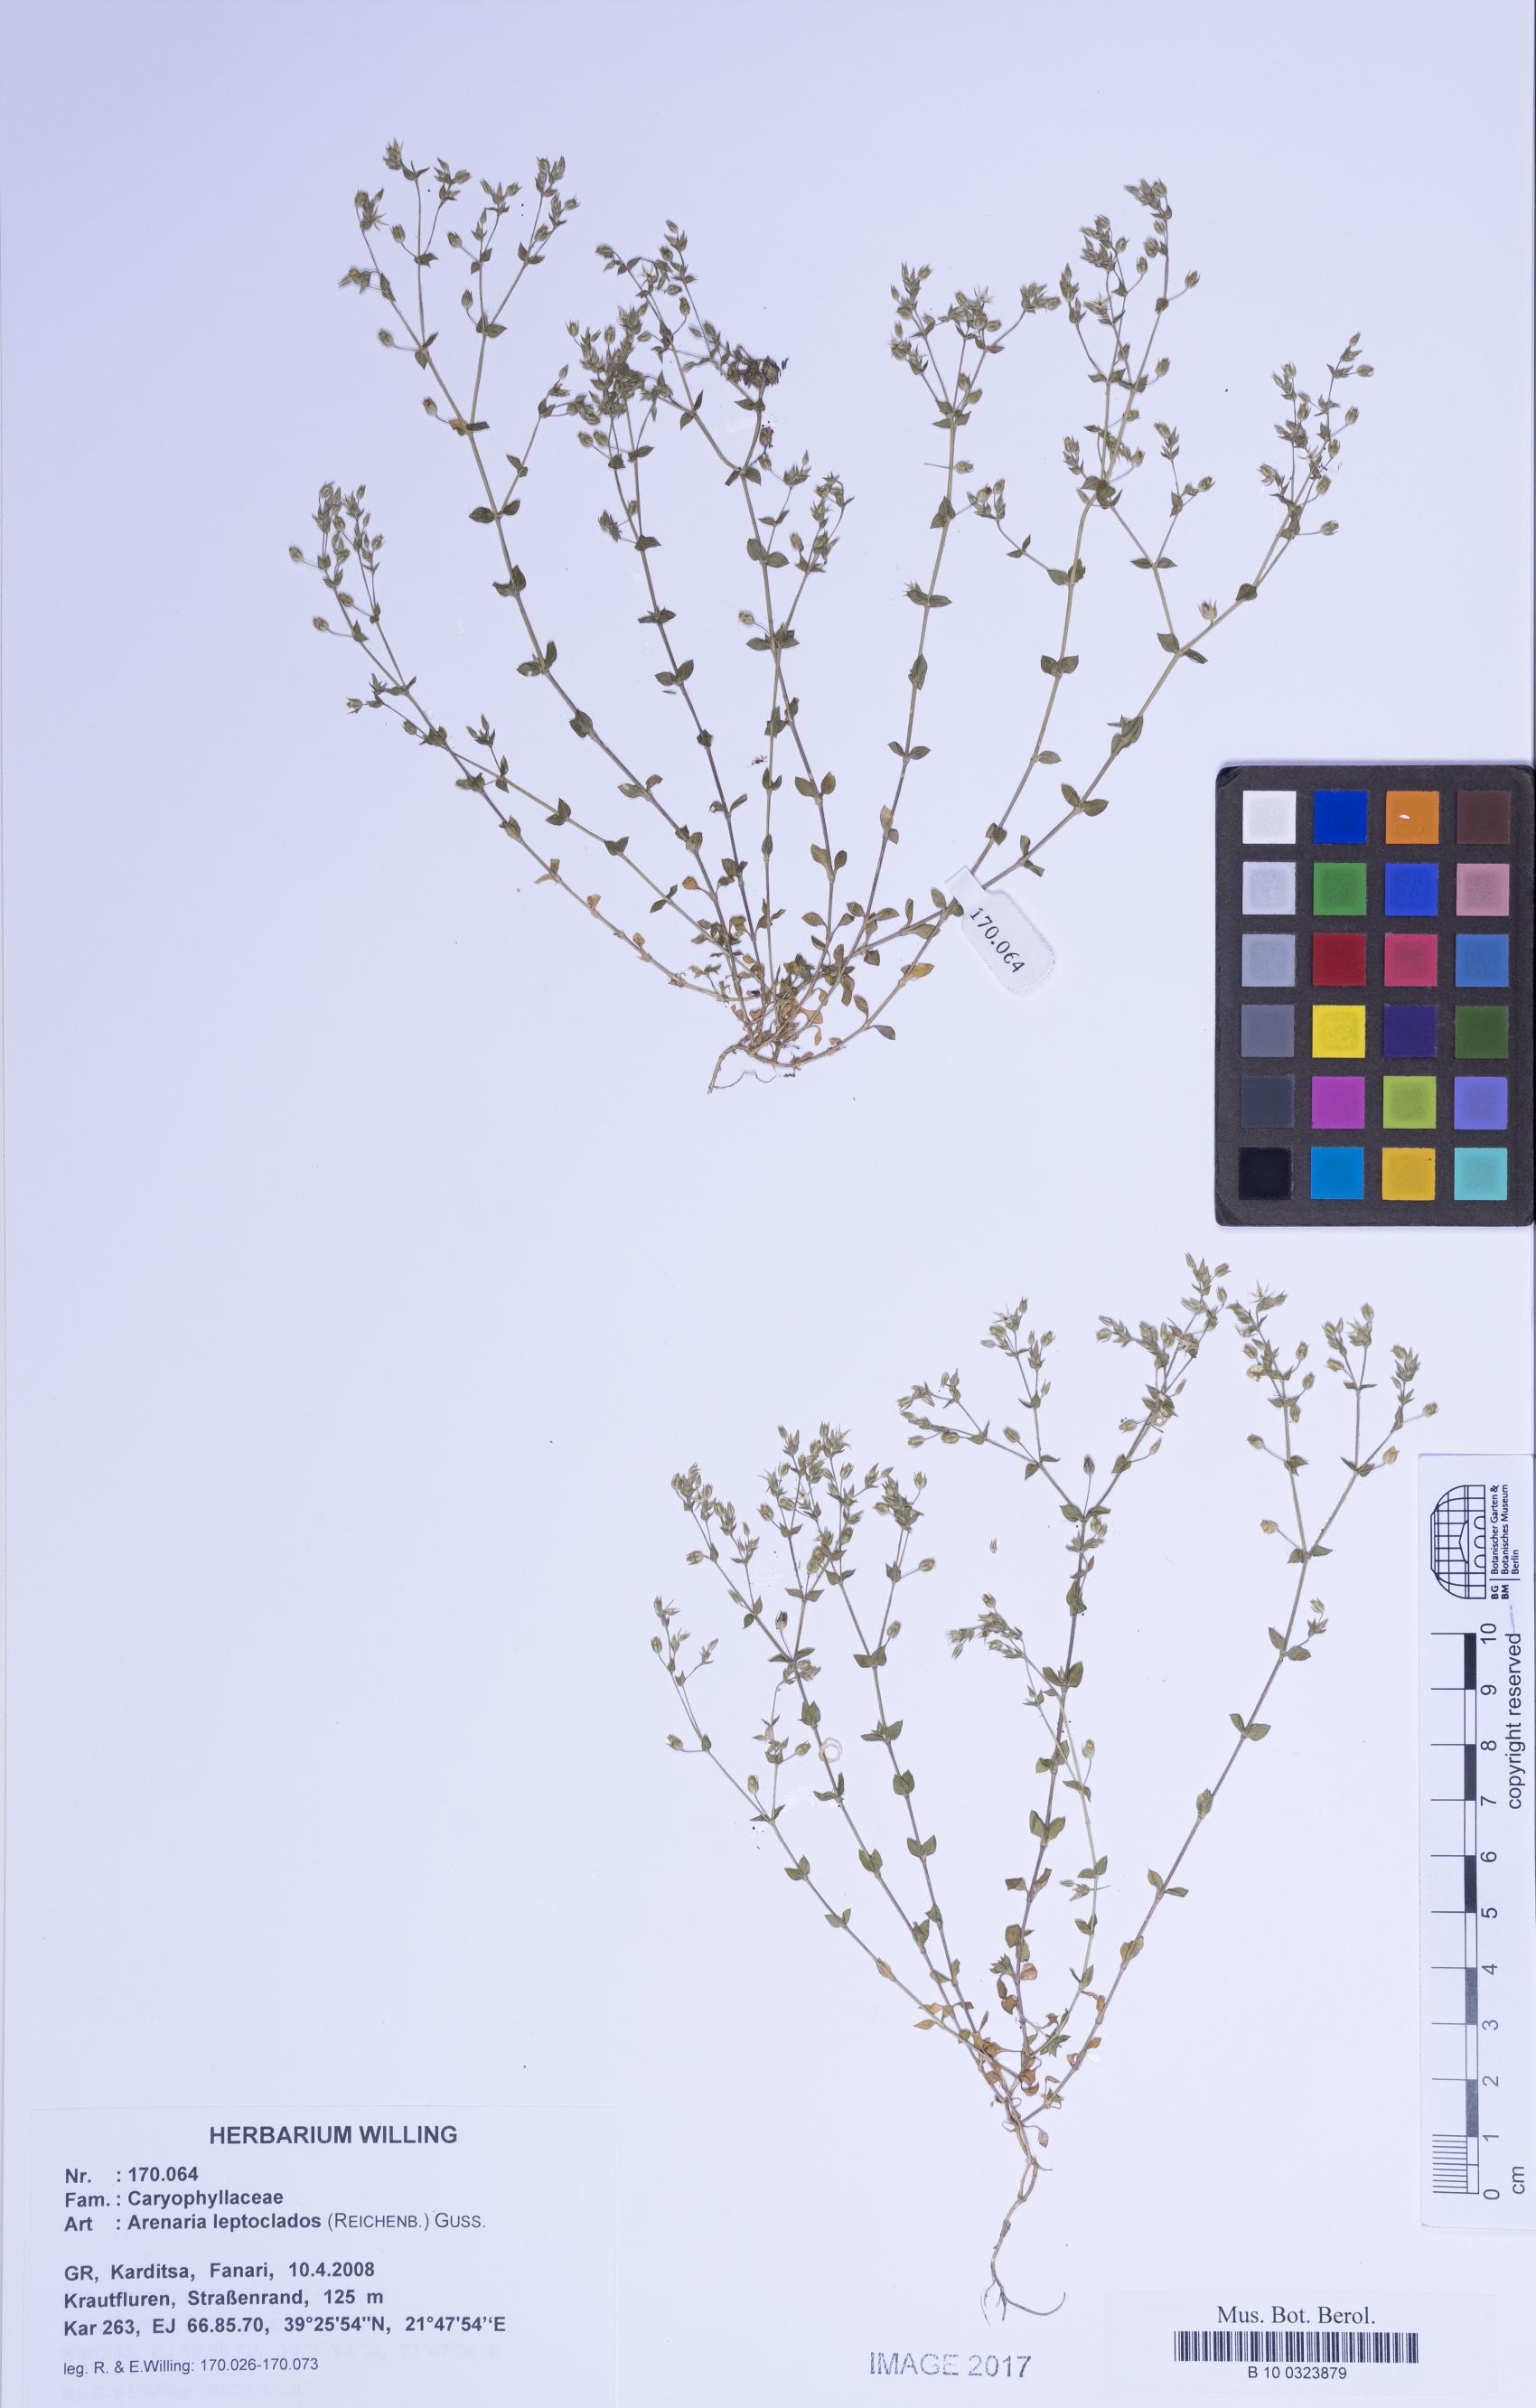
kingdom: Plantae
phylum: Tracheophyta
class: Magnoliopsida
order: Caryophyllales
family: Caryophyllaceae
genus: Arenaria
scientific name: Arenaria leptoclados
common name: Thyme-leaved sandwort
